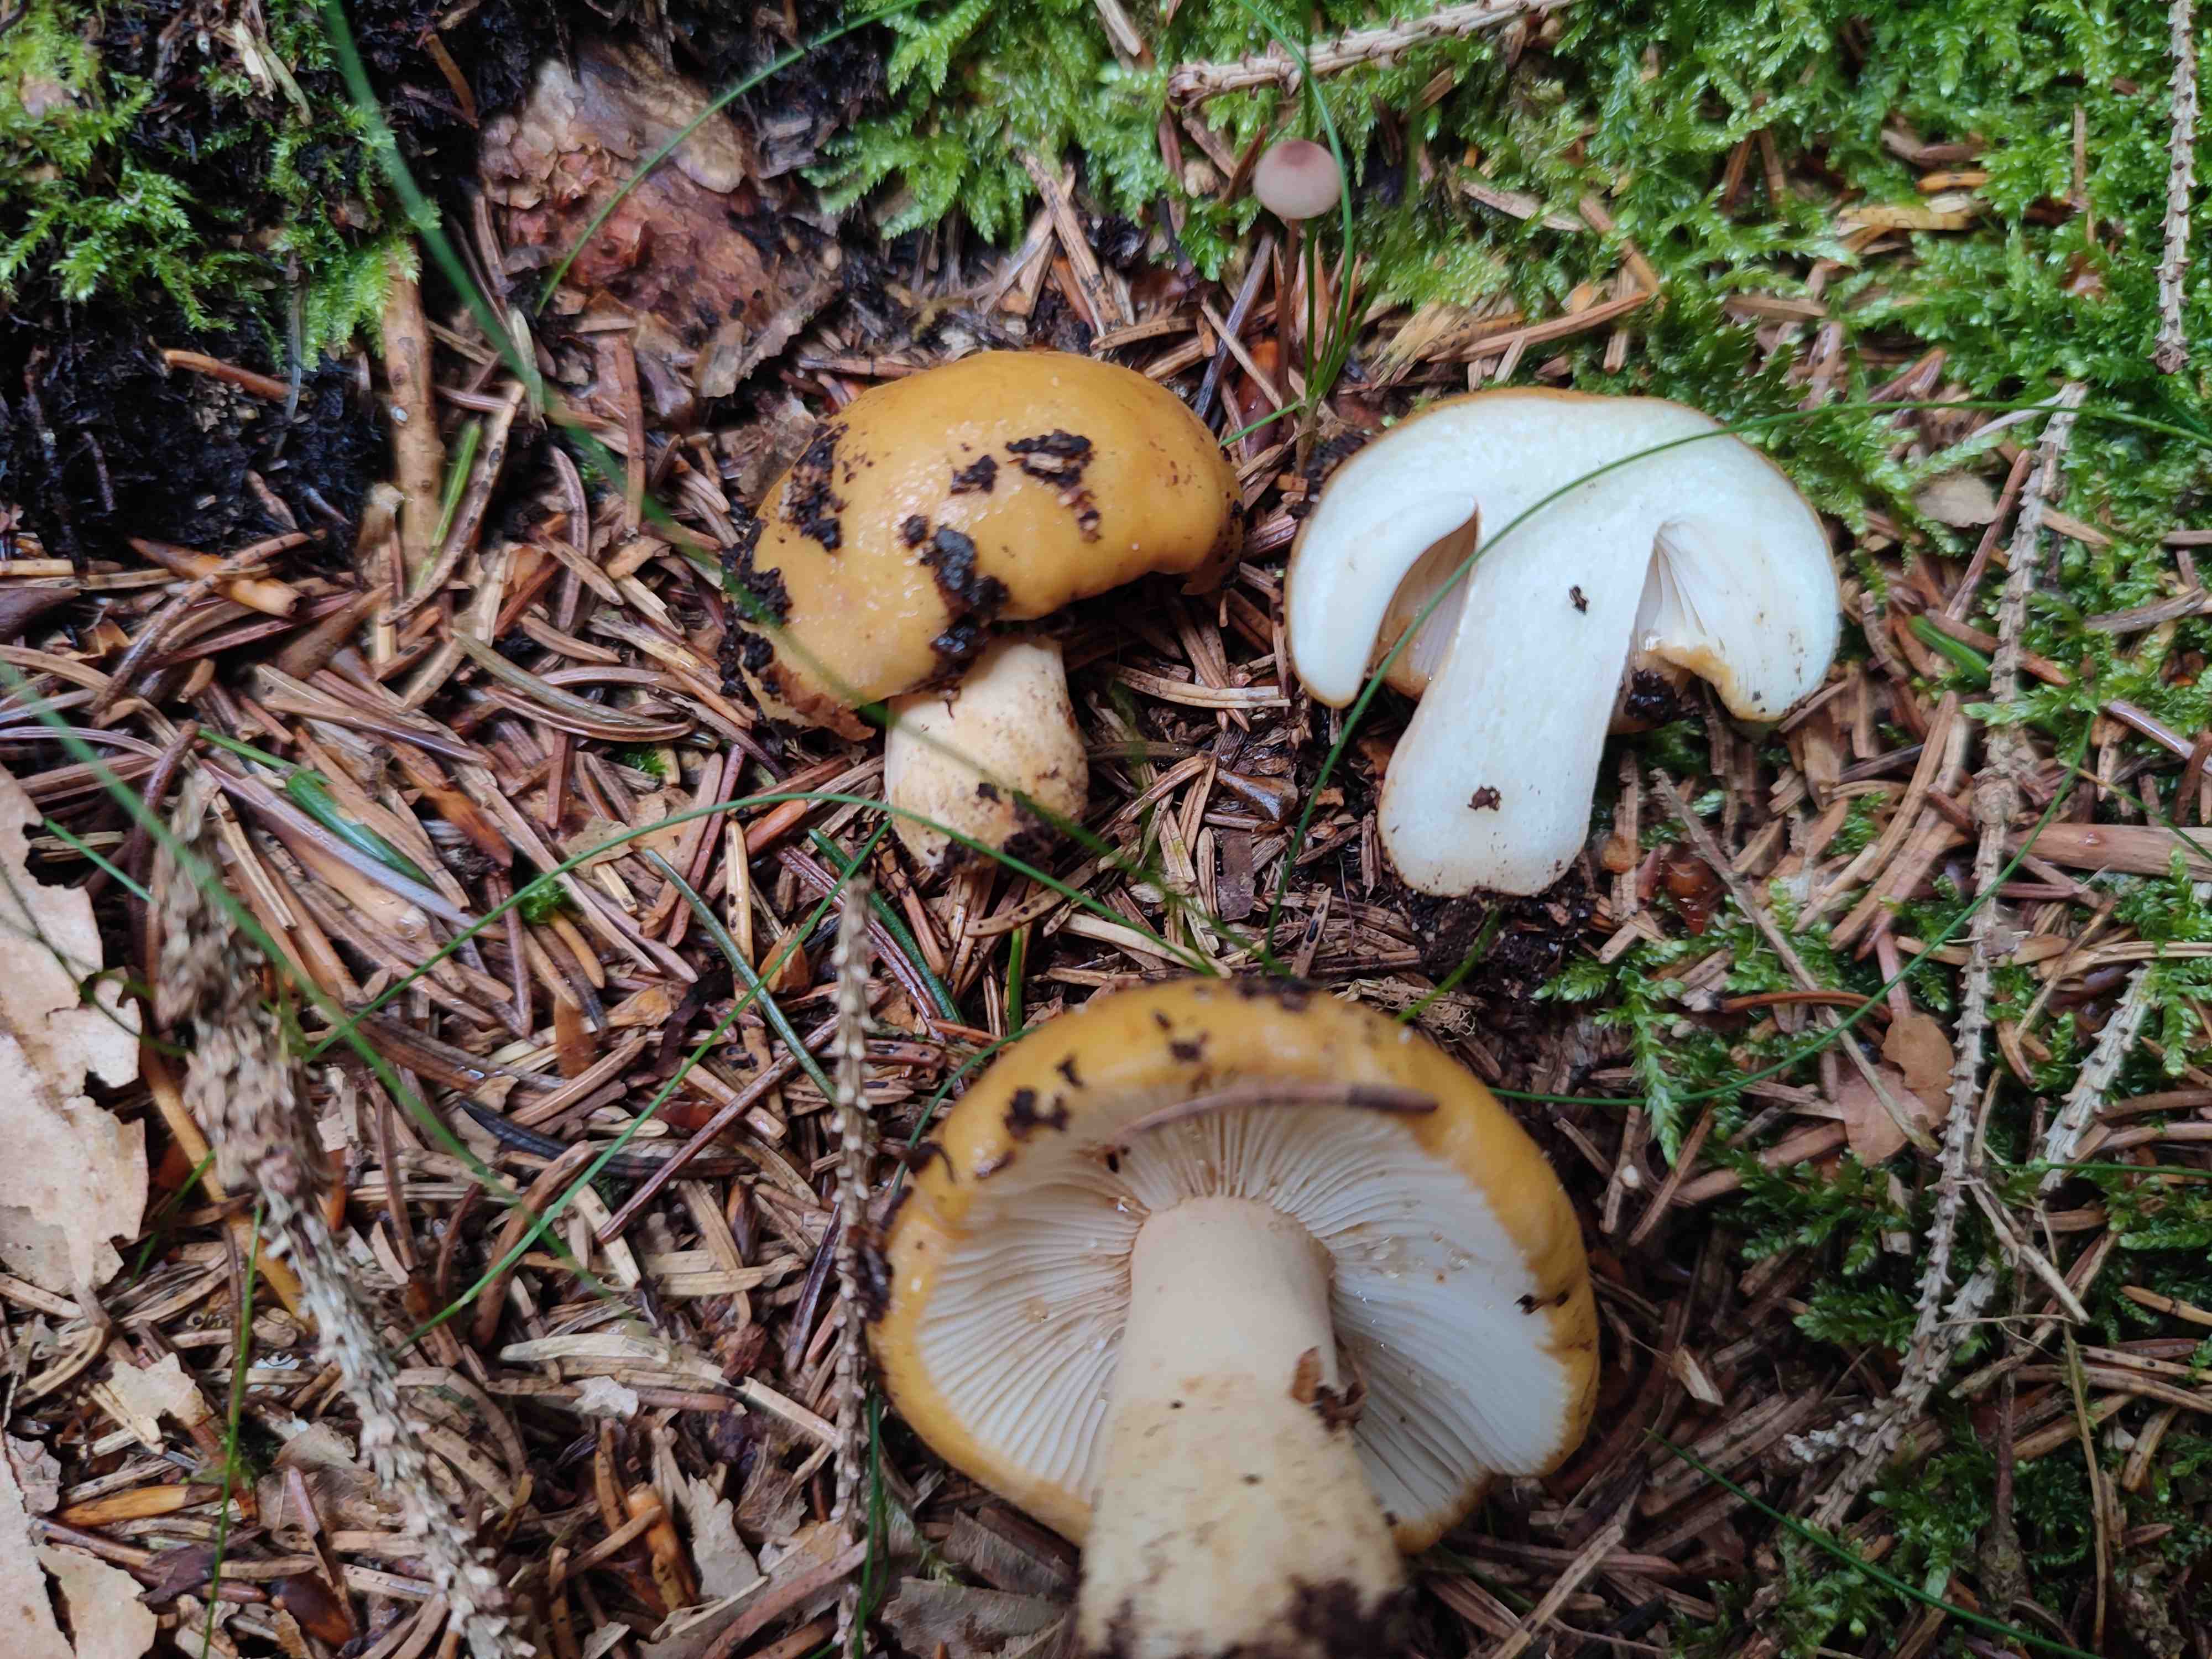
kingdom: Fungi
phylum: Basidiomycota
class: Agaricomycetes
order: Russulales
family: Russulaceae
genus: Russula
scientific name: Russula ochroleuca
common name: okkergul skørhat
